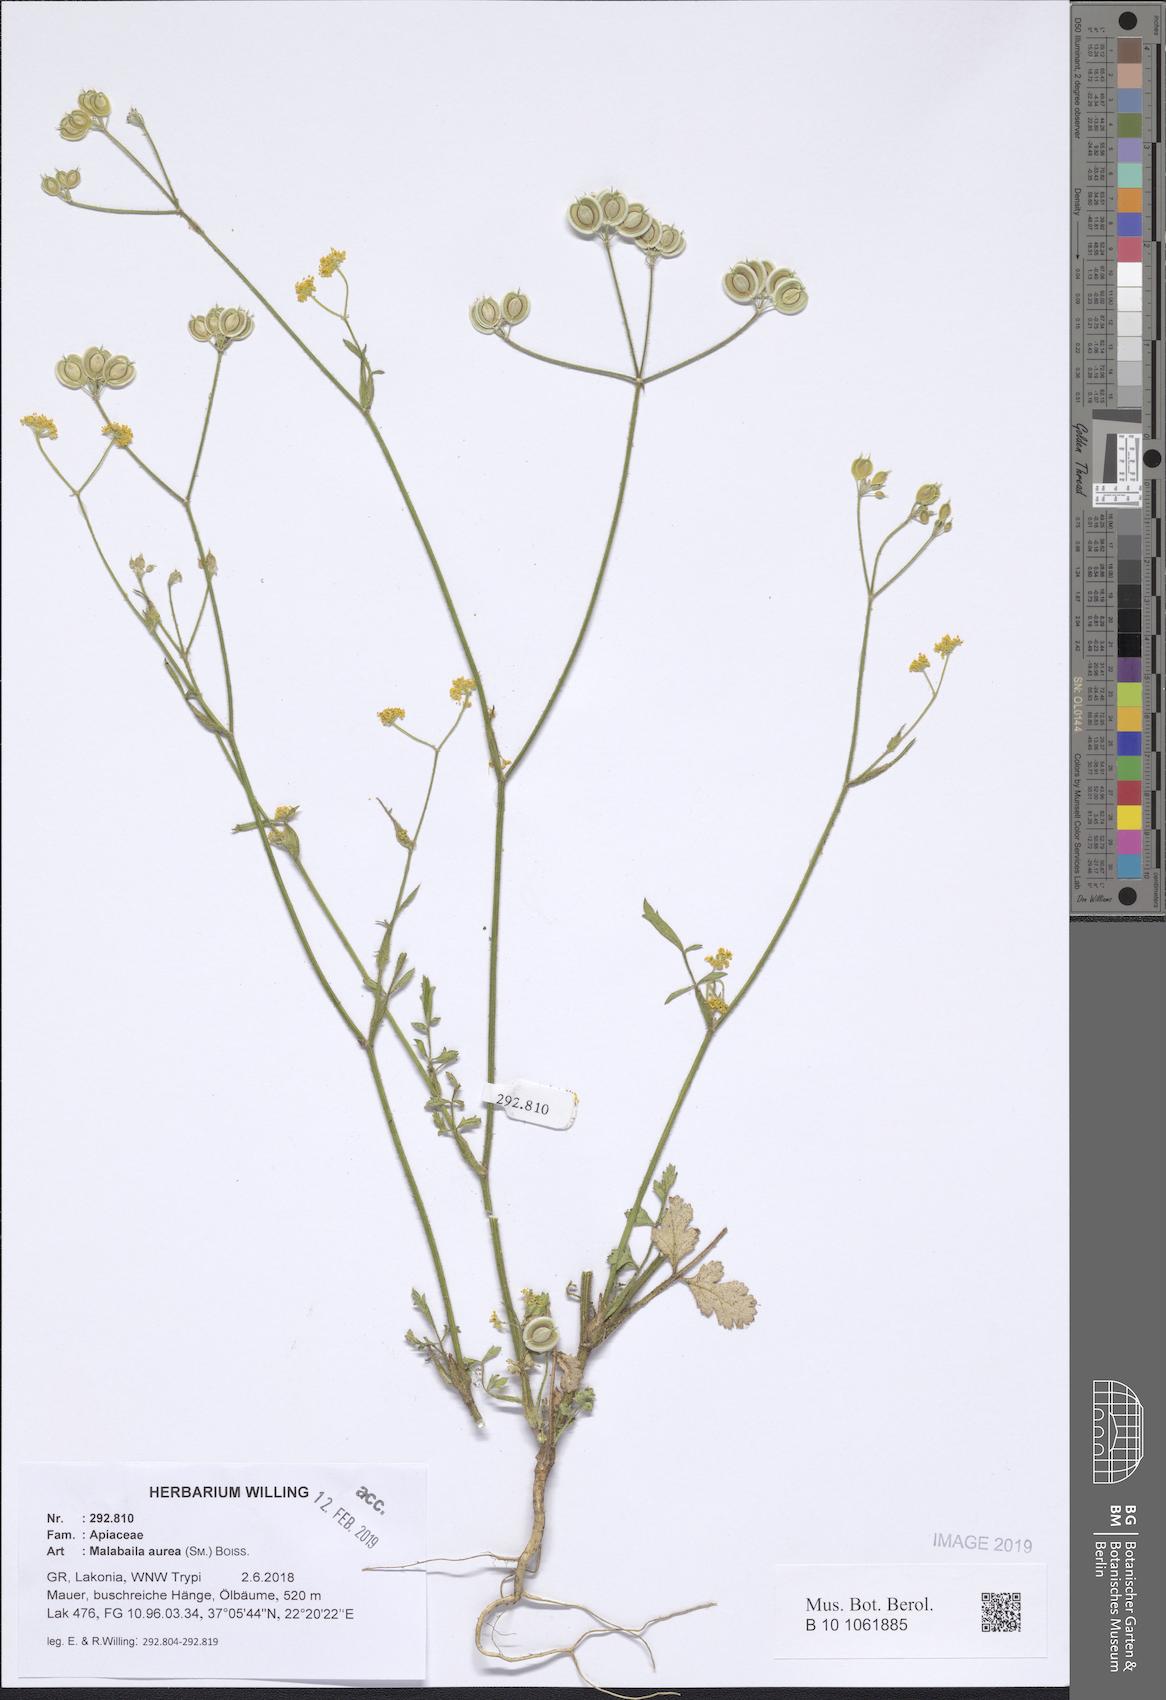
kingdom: Plantae
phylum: Tracheophyta
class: Magnoliopsida
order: Apiales
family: Apiaceae
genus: Leiotulus
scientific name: Leiotulus aureus
